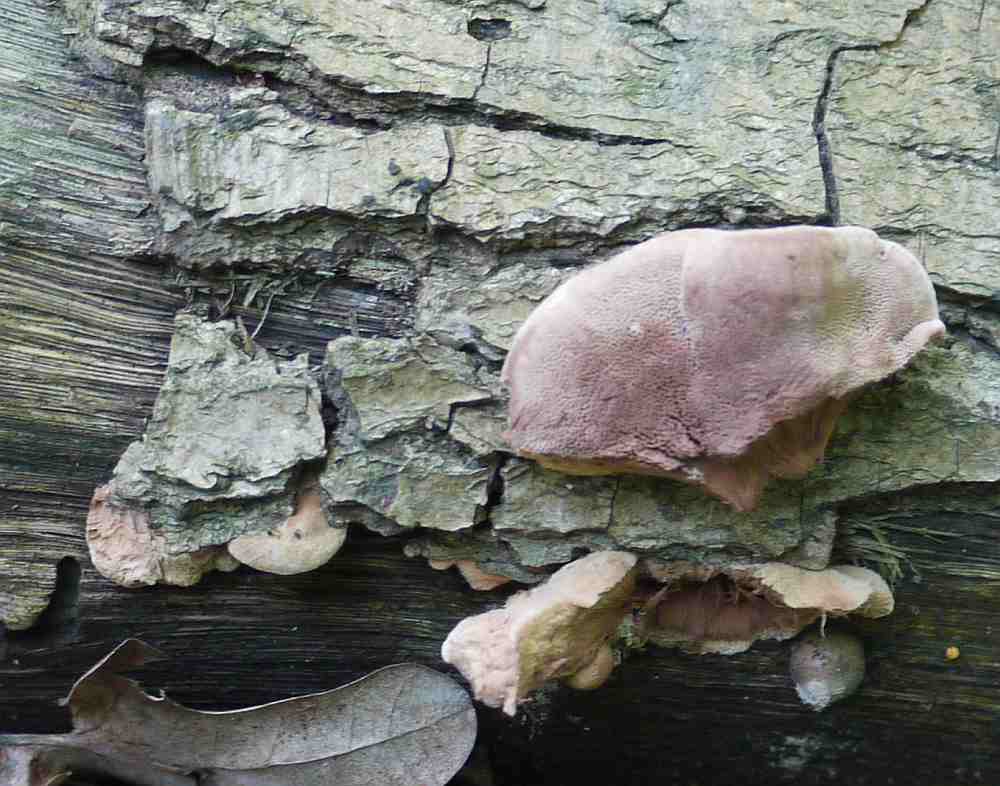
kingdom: Fungi
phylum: Basidiomycota
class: Agaricomycetes
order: Polyporales
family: Phanerochaetaceae
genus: Hapalopilus
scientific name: Hapalopilus rutilans
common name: rødlig okkerporesvamp
